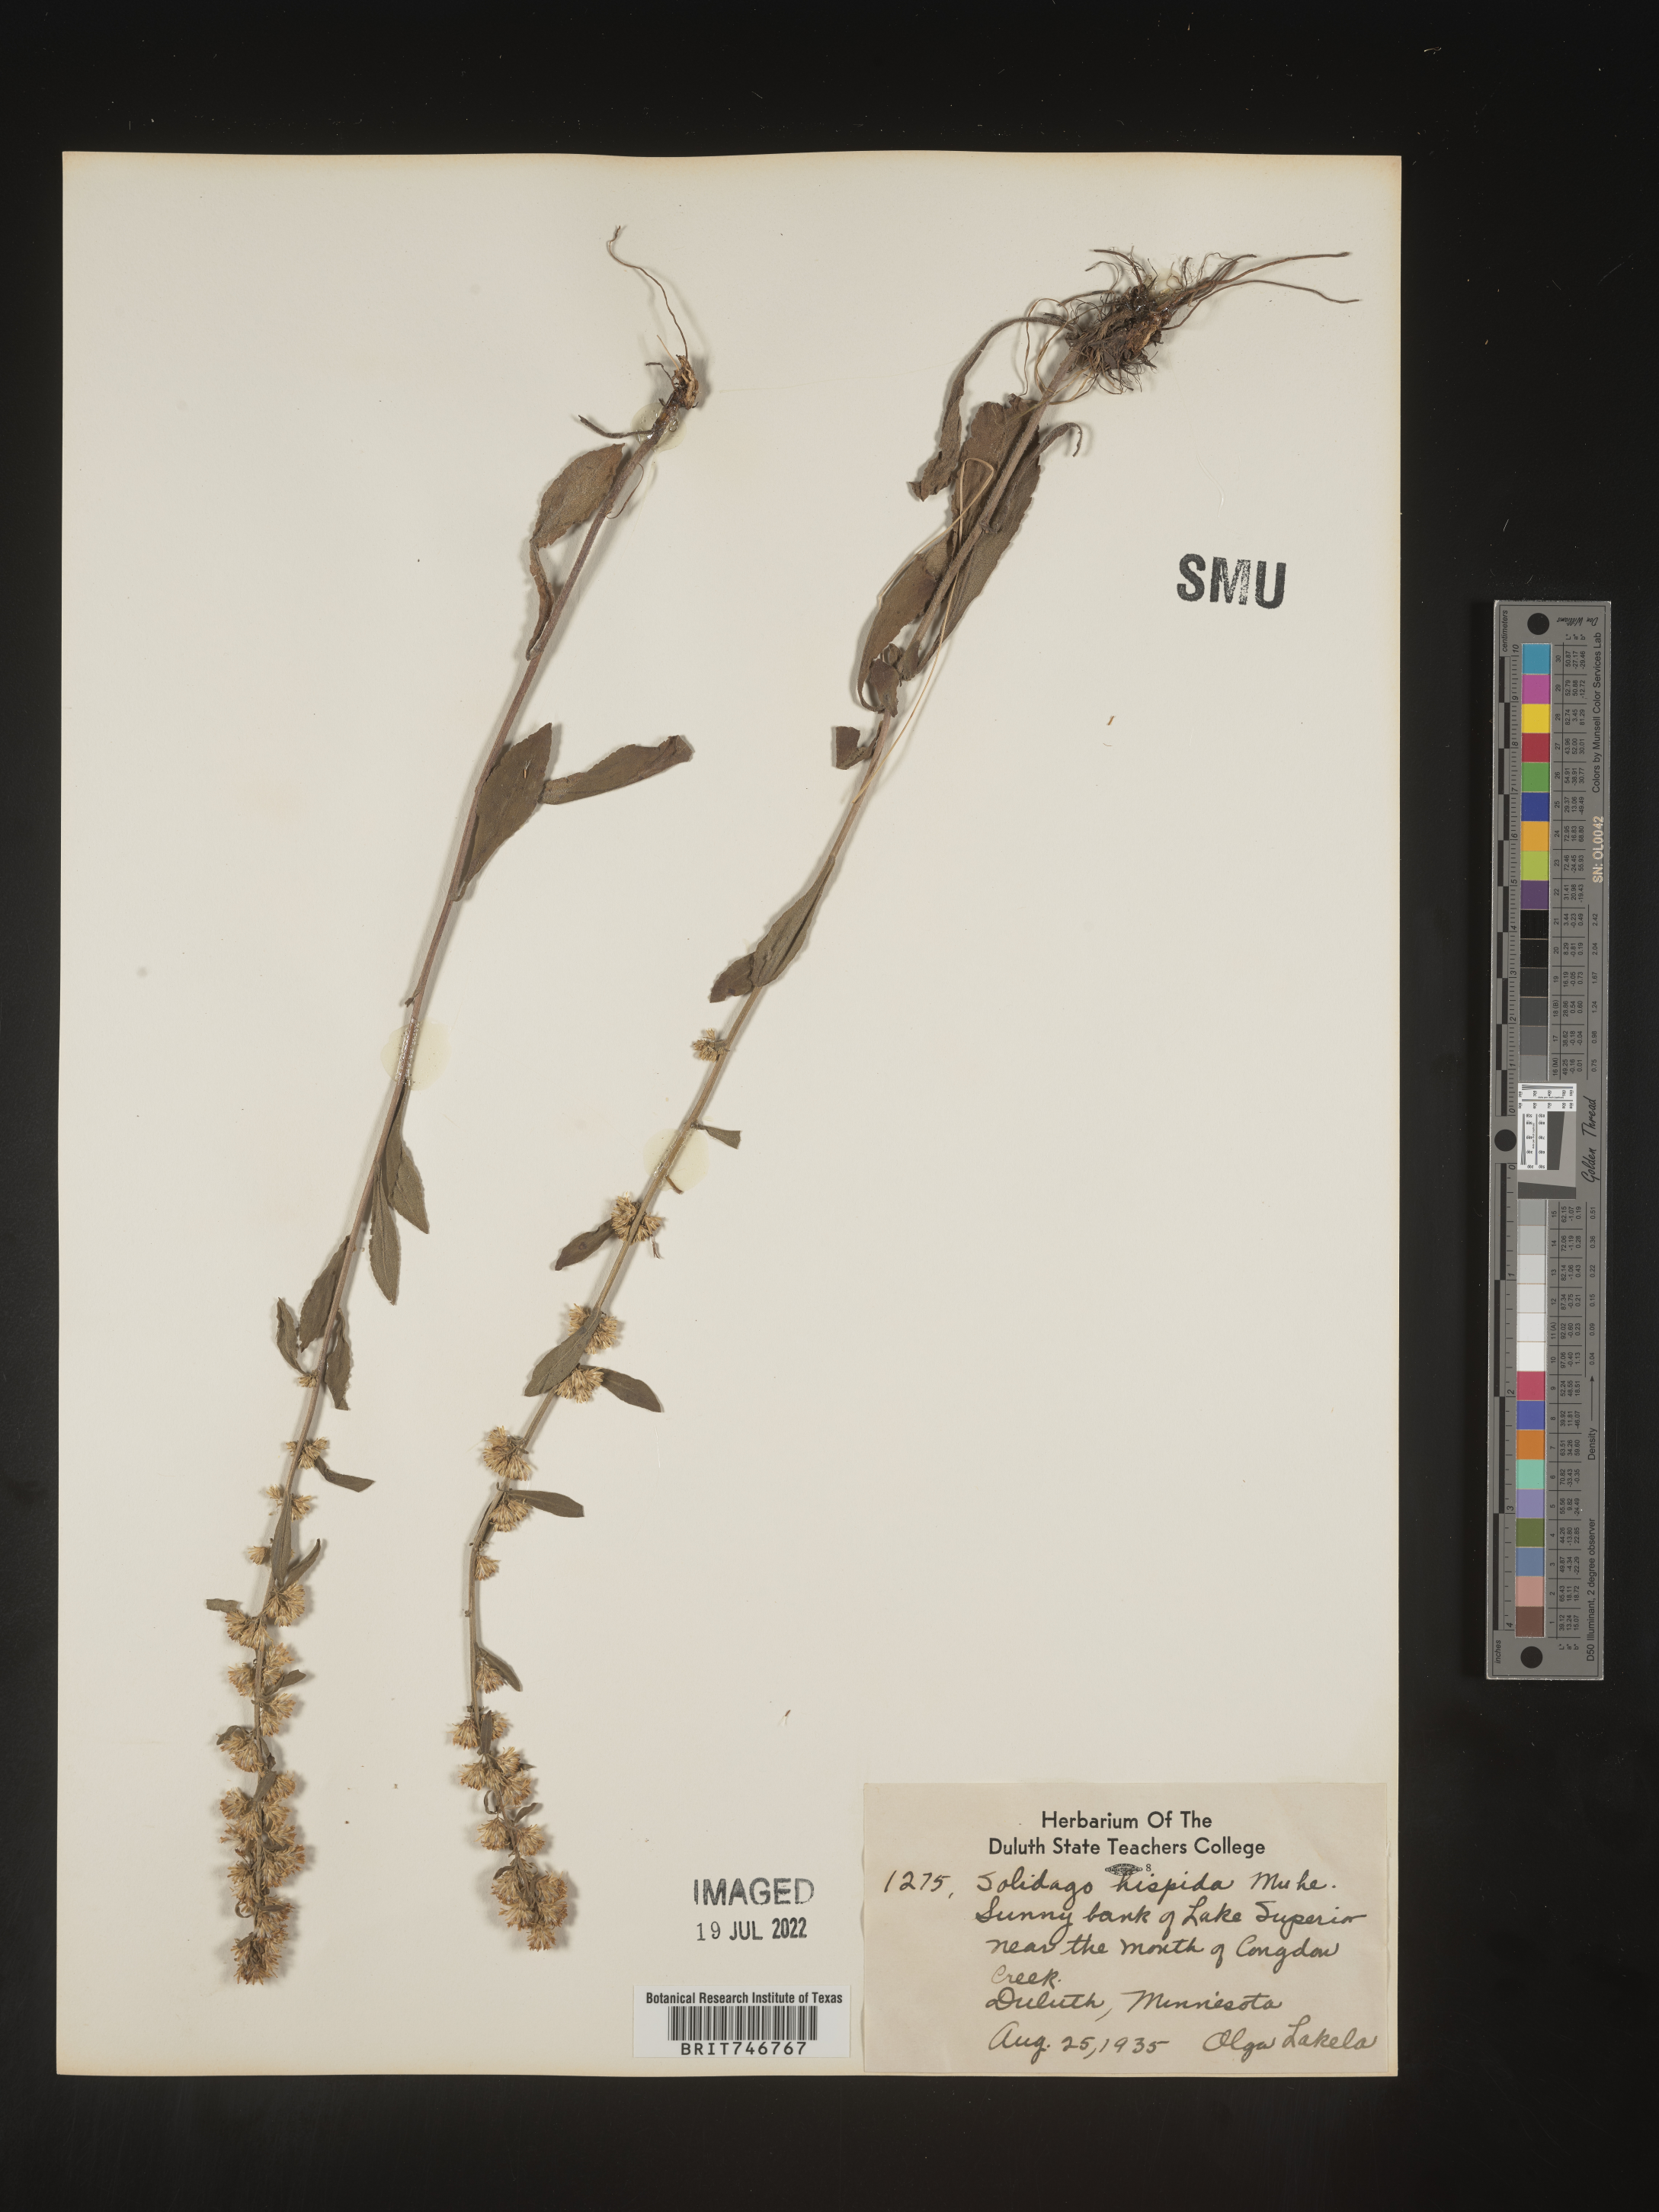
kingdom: Plantae
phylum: Tracheophyta
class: Magnoliopsida
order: Asterales
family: Asteraceae
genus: Solidago
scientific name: Solidago hispida
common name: Hairy goldenrod
